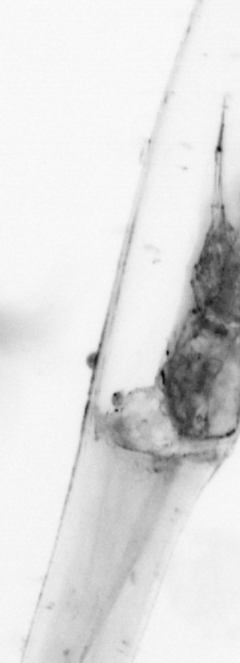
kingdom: Animalia
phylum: Chaetognatha
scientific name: Chaetognatha
